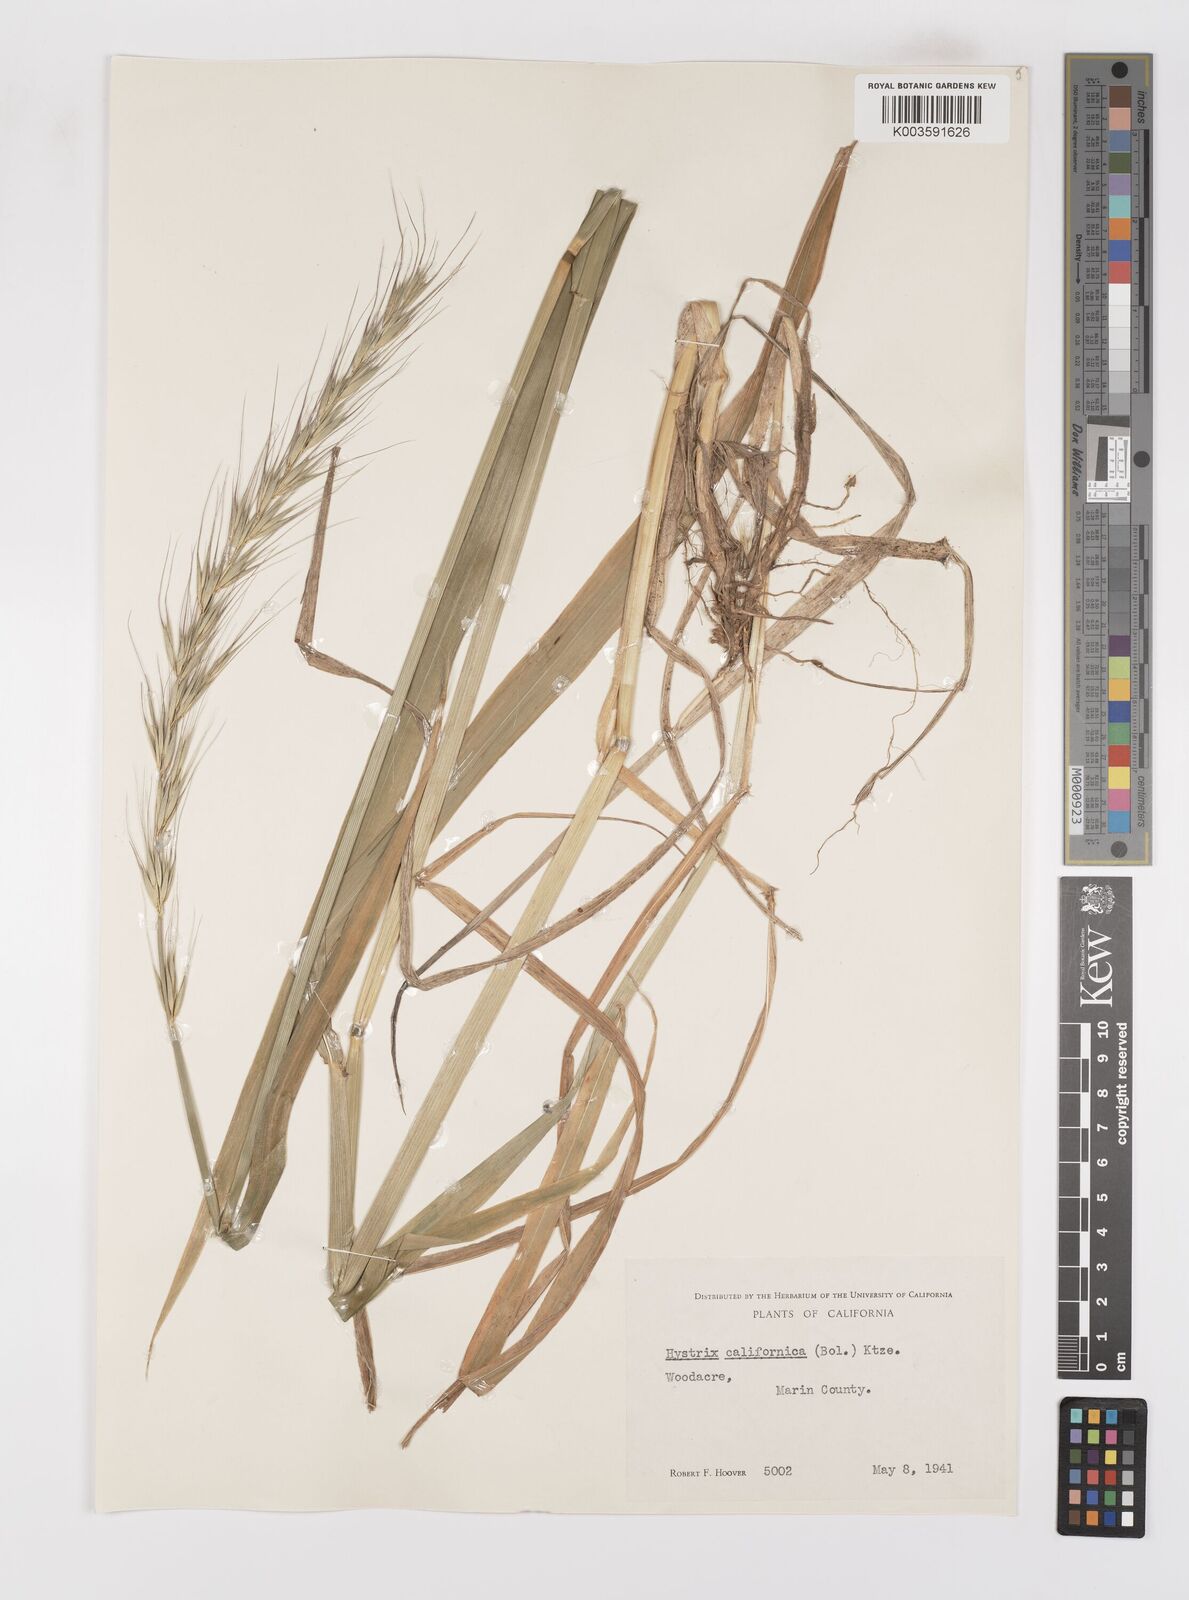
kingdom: Plantae
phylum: Tracheophyta
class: Liliopsida
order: Poales
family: Poaceae
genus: Leymus
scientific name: Leymus
